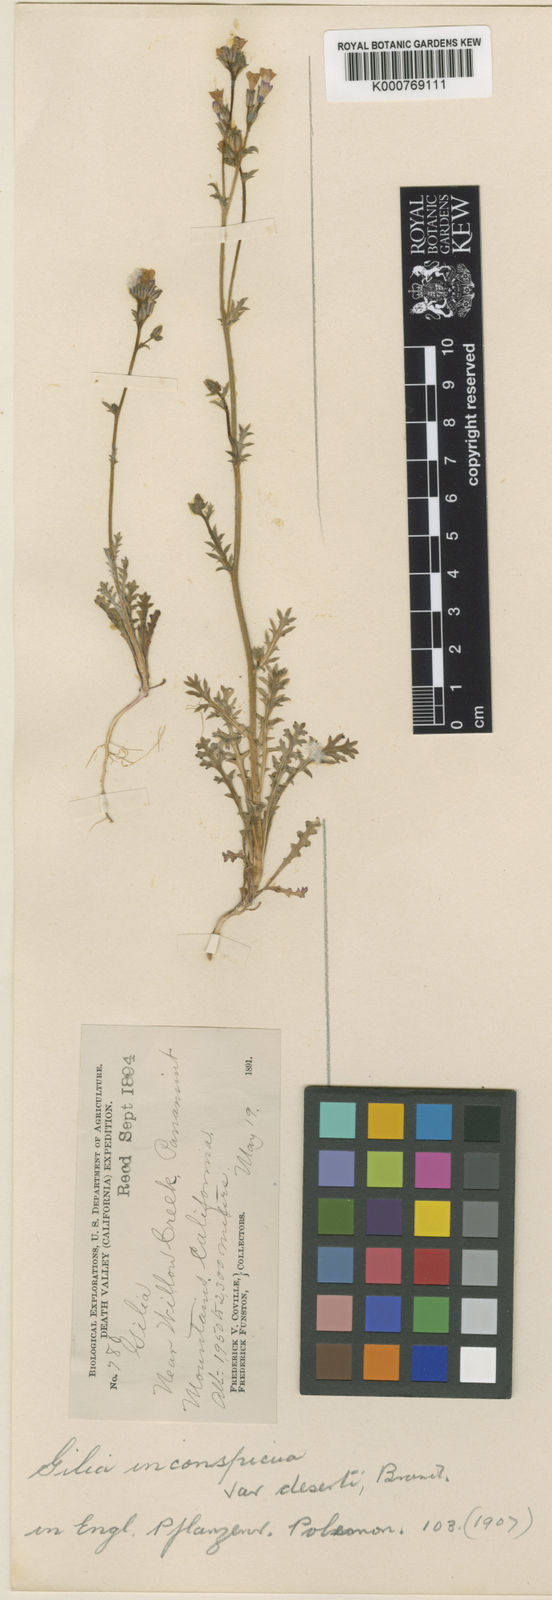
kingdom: Plantae
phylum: Tracheophyta
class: Magnoliopsida
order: Ericales
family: Polemoniaceae
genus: Gilia
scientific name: Gilia inconspicua
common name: Shy gilia
